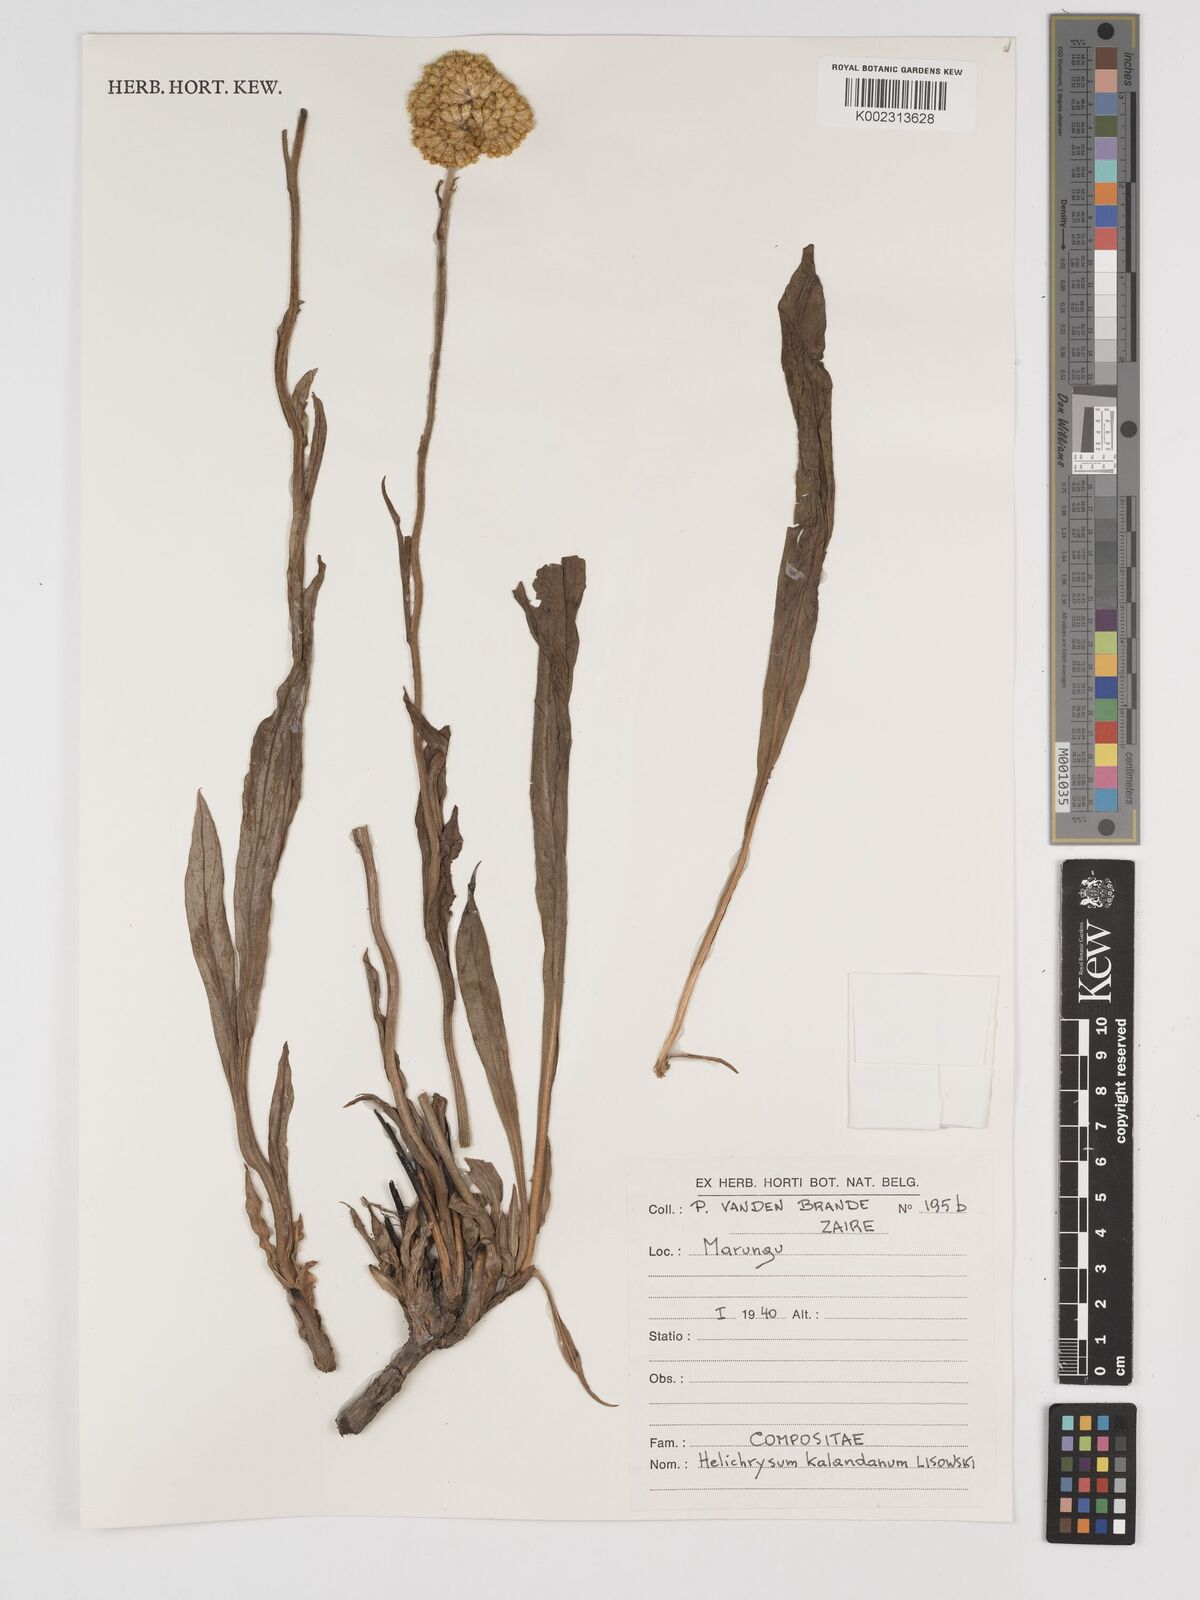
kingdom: Plantae
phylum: Tracheophyta
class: Magnoliopsida
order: Asterales
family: Asteraceae
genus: Helichrysum
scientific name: Helichrysum kalandanum
